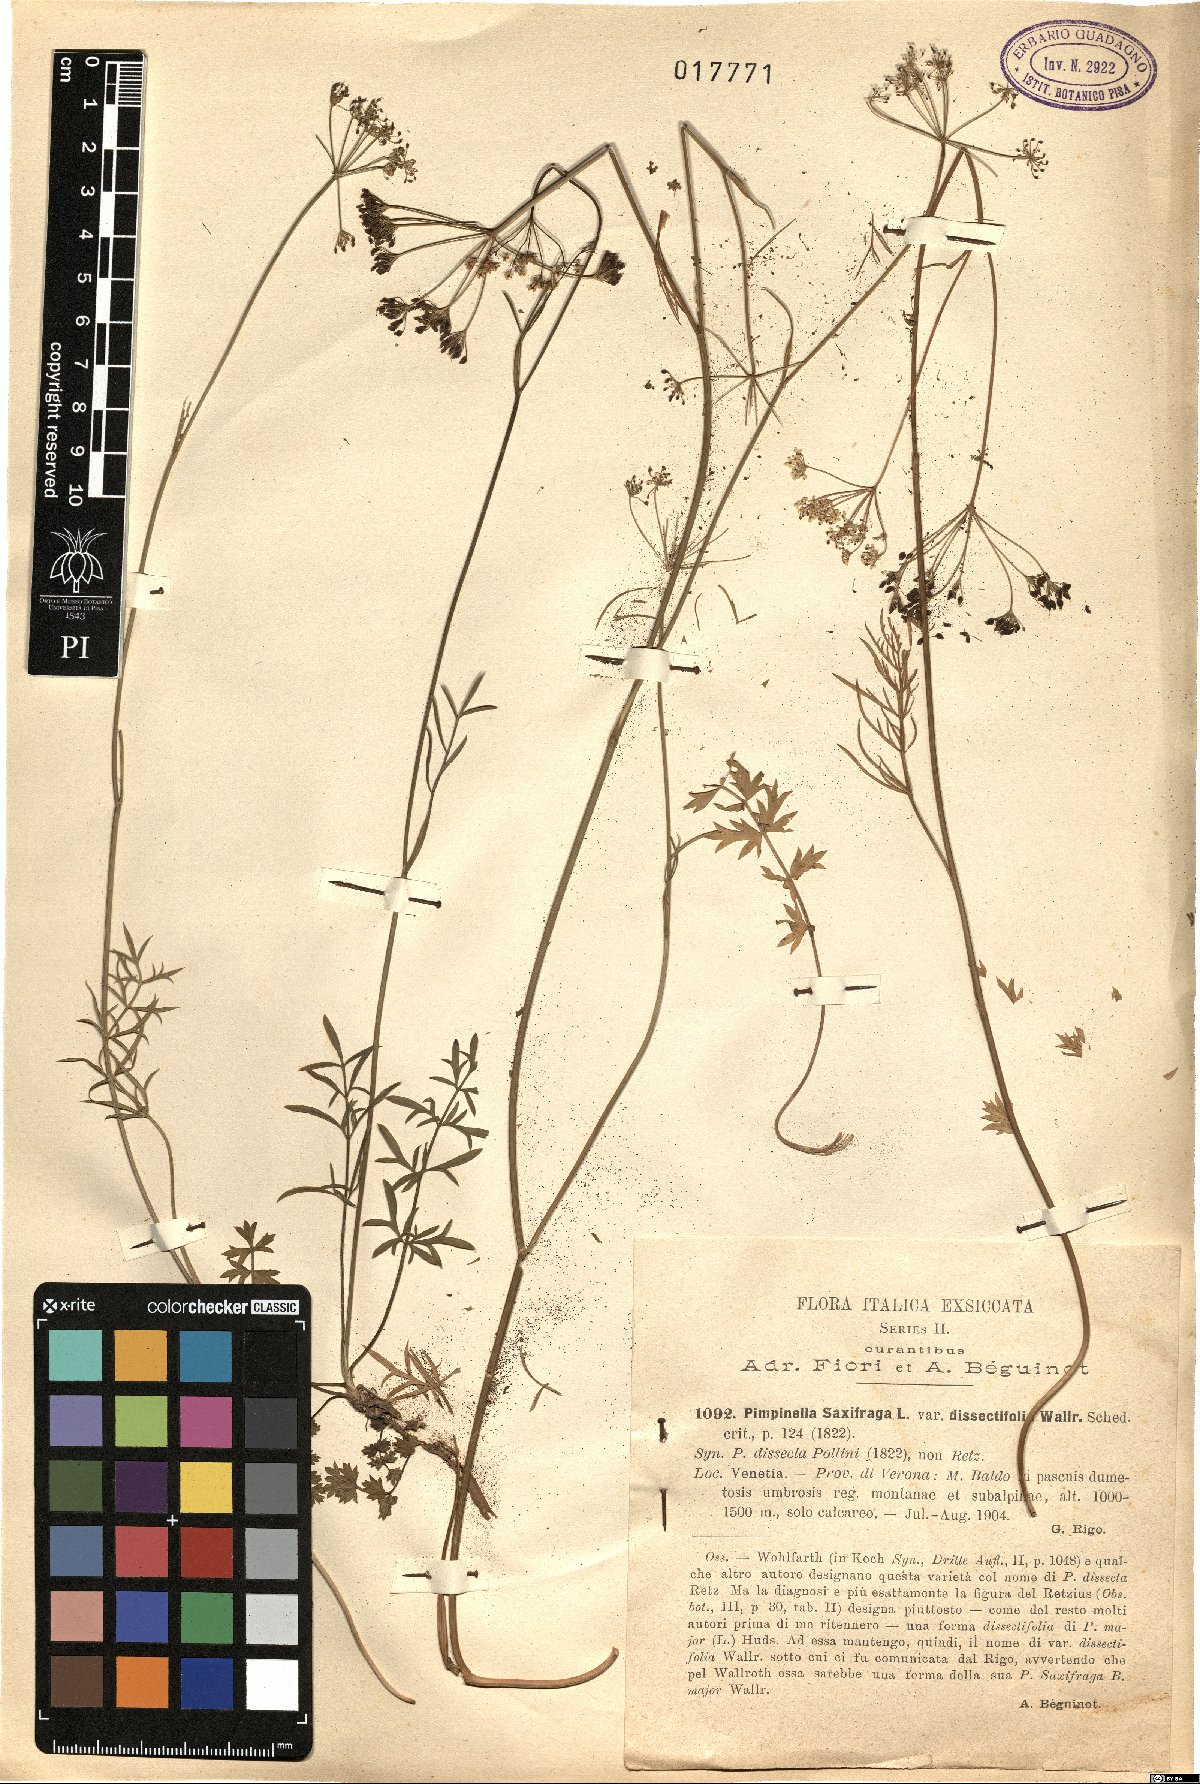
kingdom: Plantae
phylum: Tracheophyta
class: Magnoliopsida
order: Apiales
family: Apiaceae
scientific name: Apiaceae
